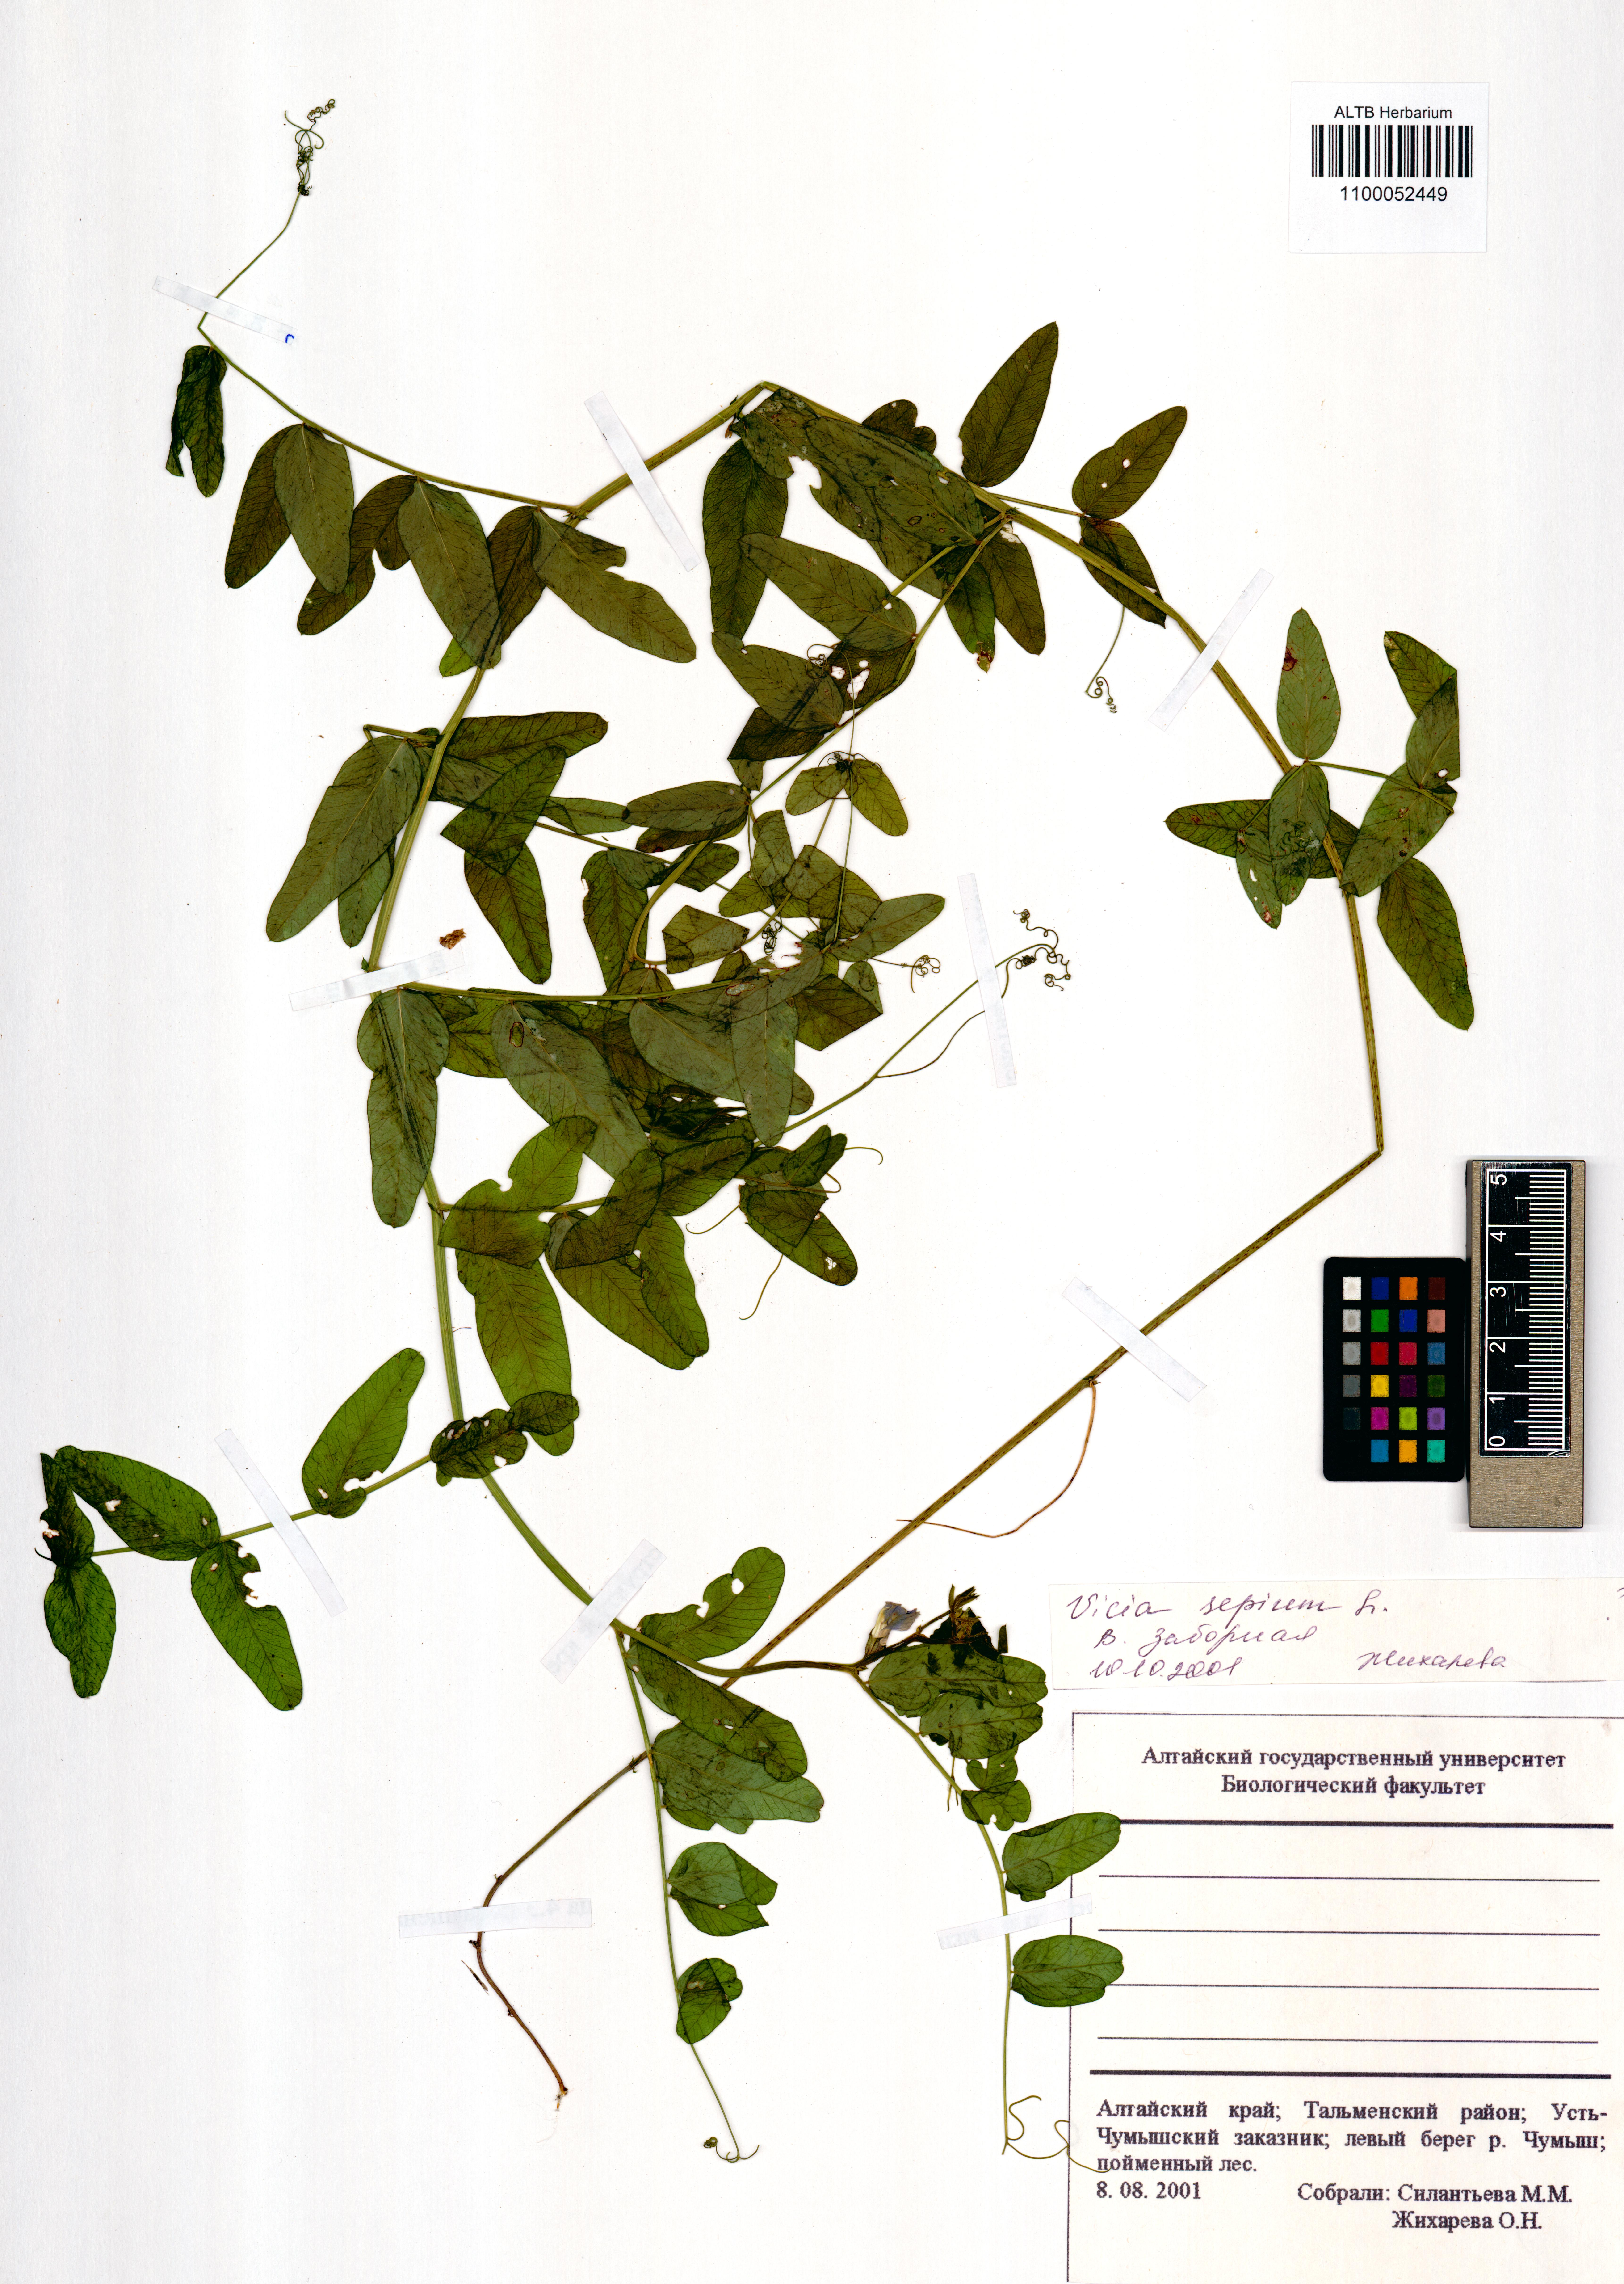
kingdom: Plantae
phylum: Tracheophyta
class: Magnoliopsida
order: Fabales
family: Fabaceae
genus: Vicia
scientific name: Vicia sepium
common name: Bush vetch
